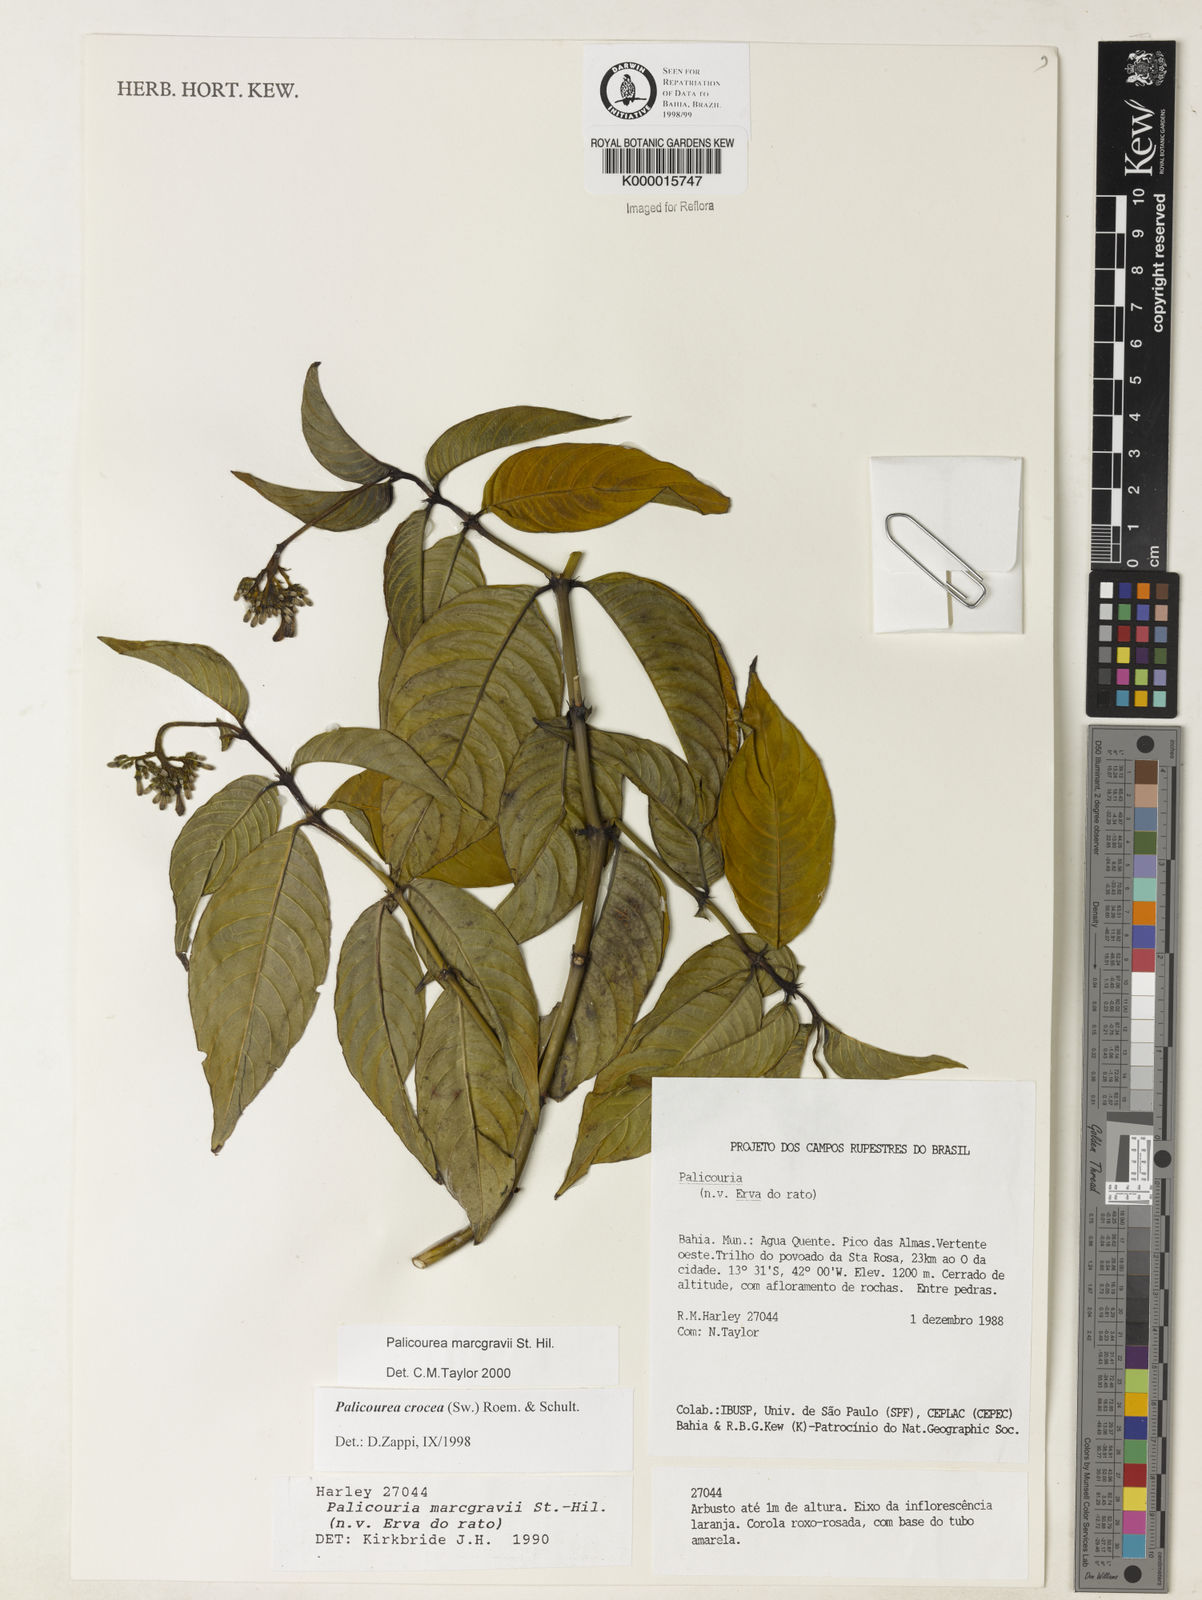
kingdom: Plantae
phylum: Tracheophyta
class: Magnoliopsida
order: Gentianales
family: Rubiaceae
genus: Palicourea
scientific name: Palicourea marcgravii
